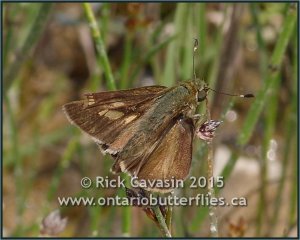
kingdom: Animalia
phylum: Arthropoda
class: Insecta
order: Lepidoptera
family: Hesperiidae
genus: Vernia
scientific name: Vernia verna
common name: Little Glassywing
